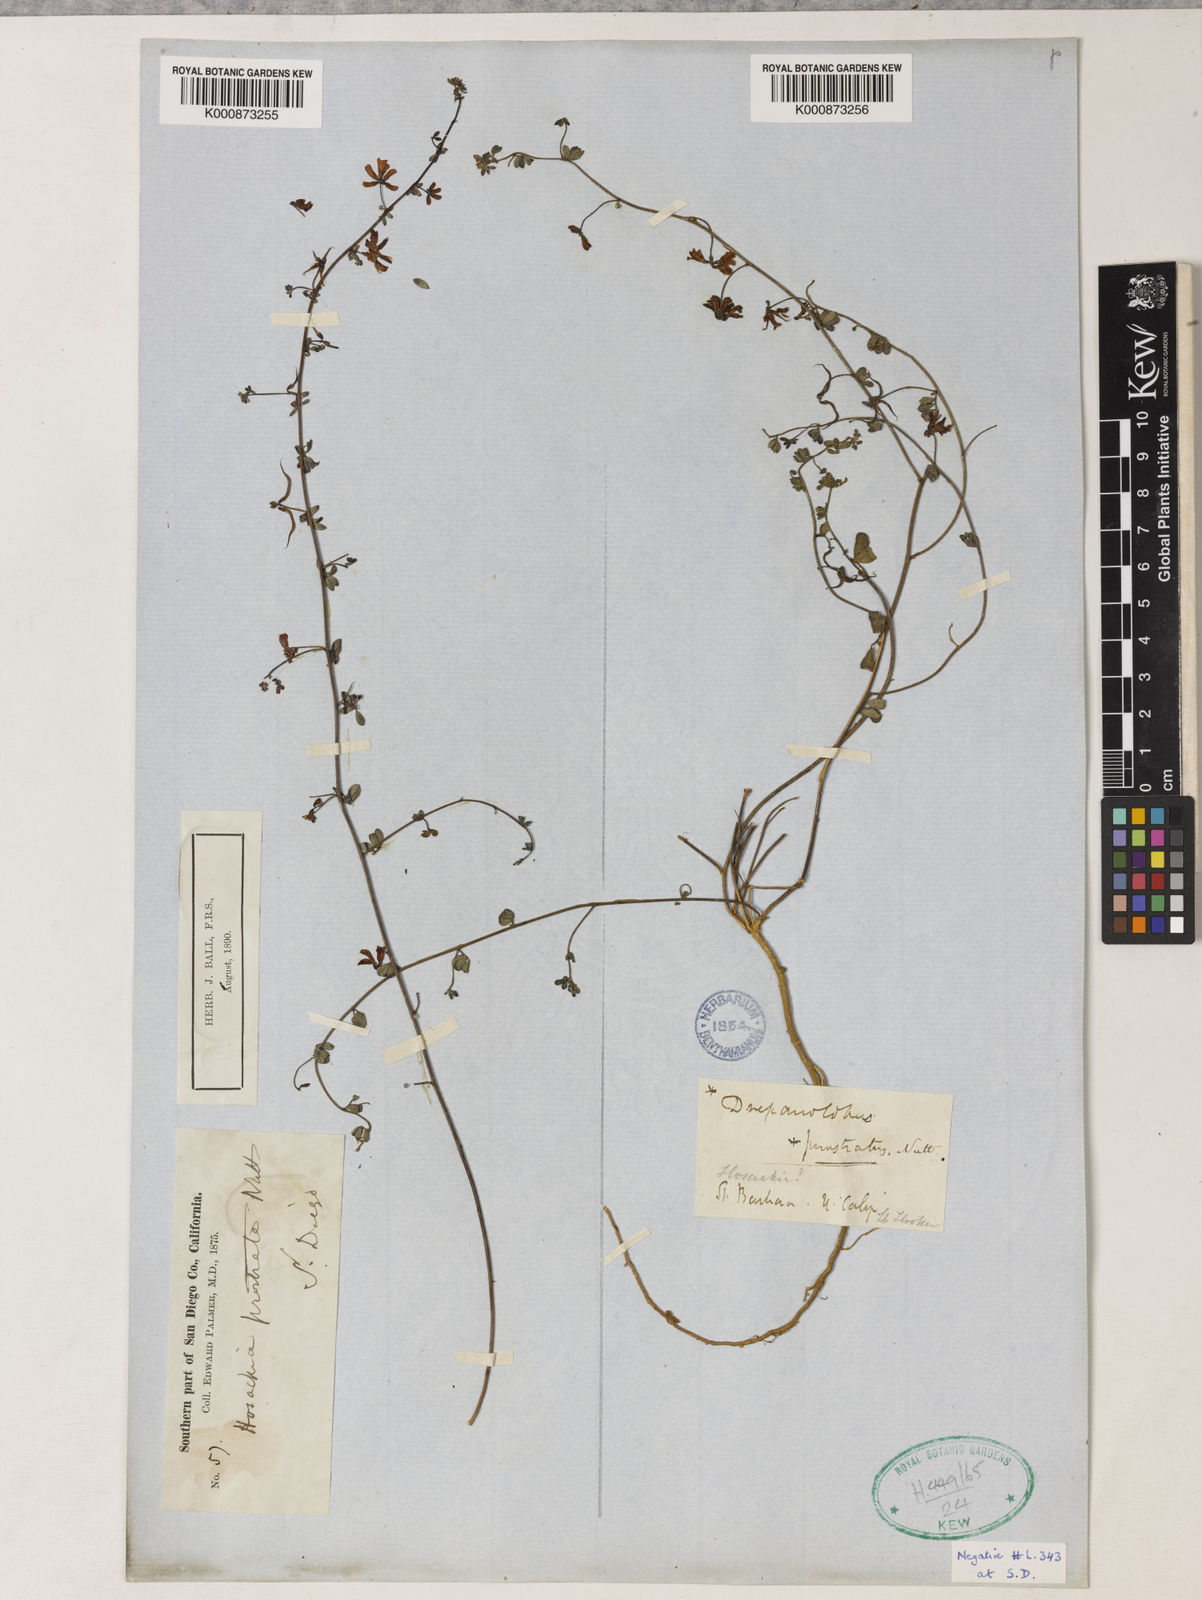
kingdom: Plantae
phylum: Tracheophyta
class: Magnoliopsida
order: Fabales
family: Fabaceae
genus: Acmispon
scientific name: Acmispon prostratus
